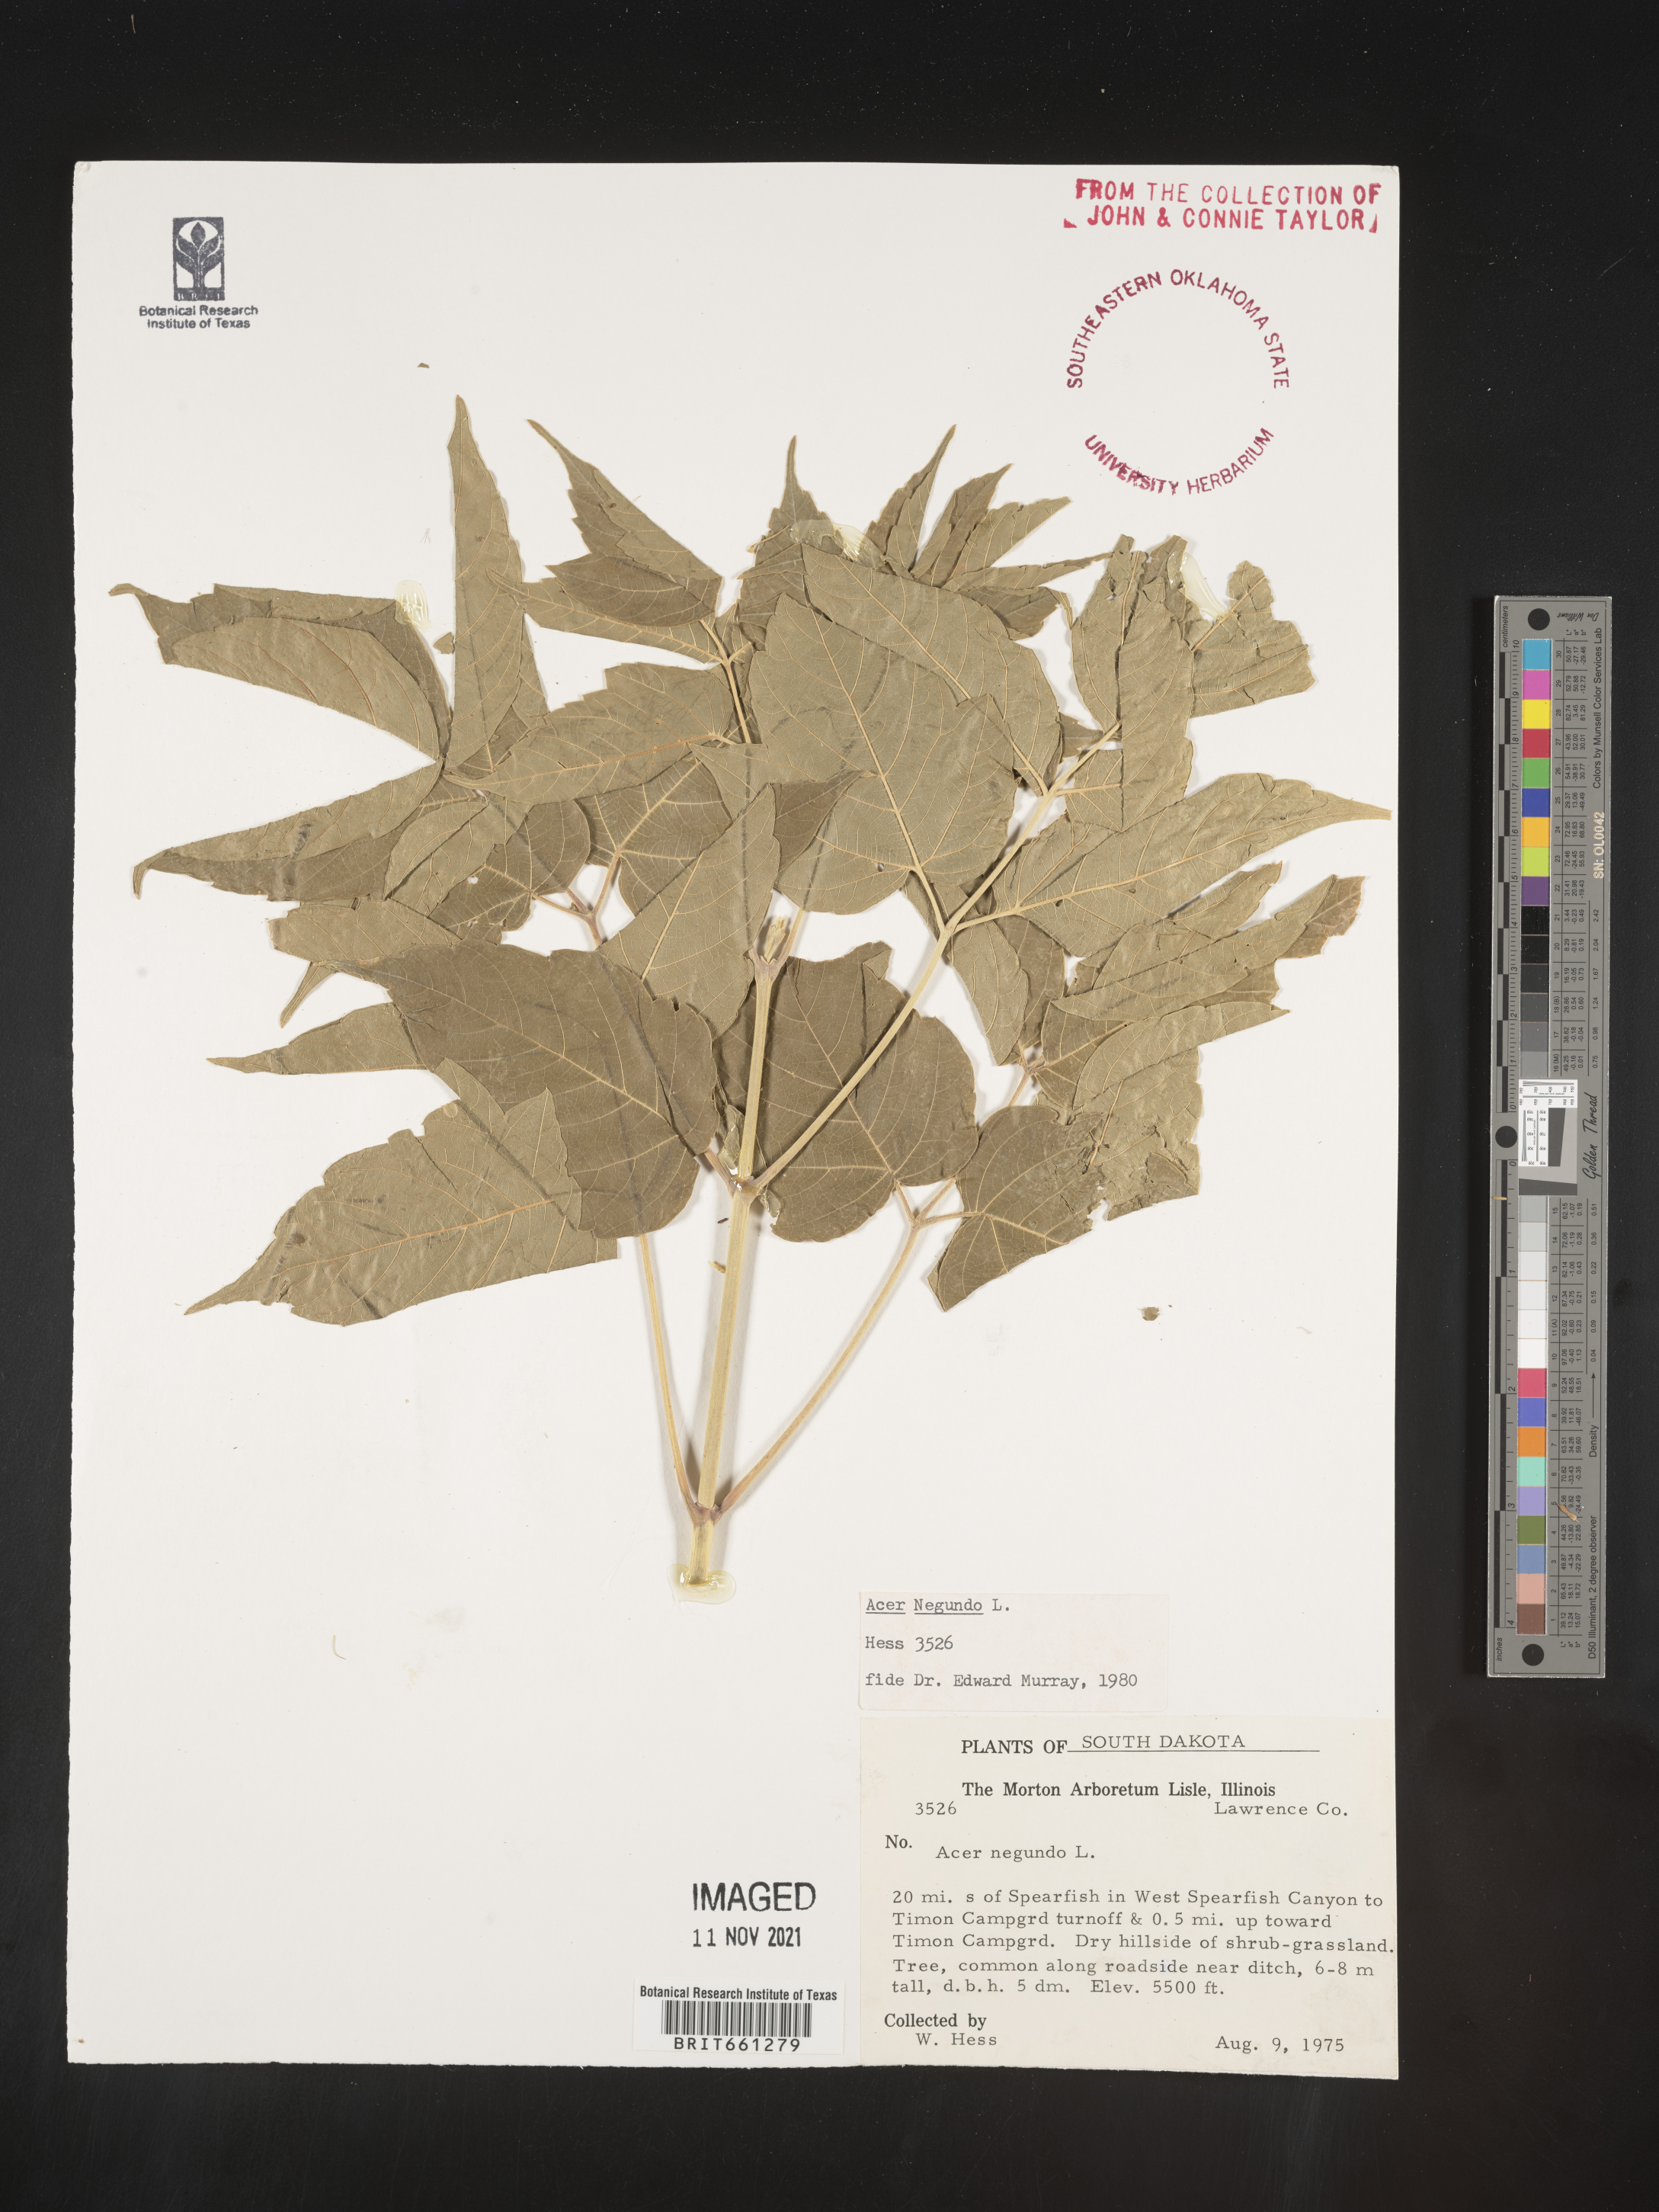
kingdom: Plantae
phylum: Tracheophyta
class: Magnoliopsida
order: Sapindales
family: Sapindaceae
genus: Acer
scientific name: Acer negundo
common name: Ashleaf maple
